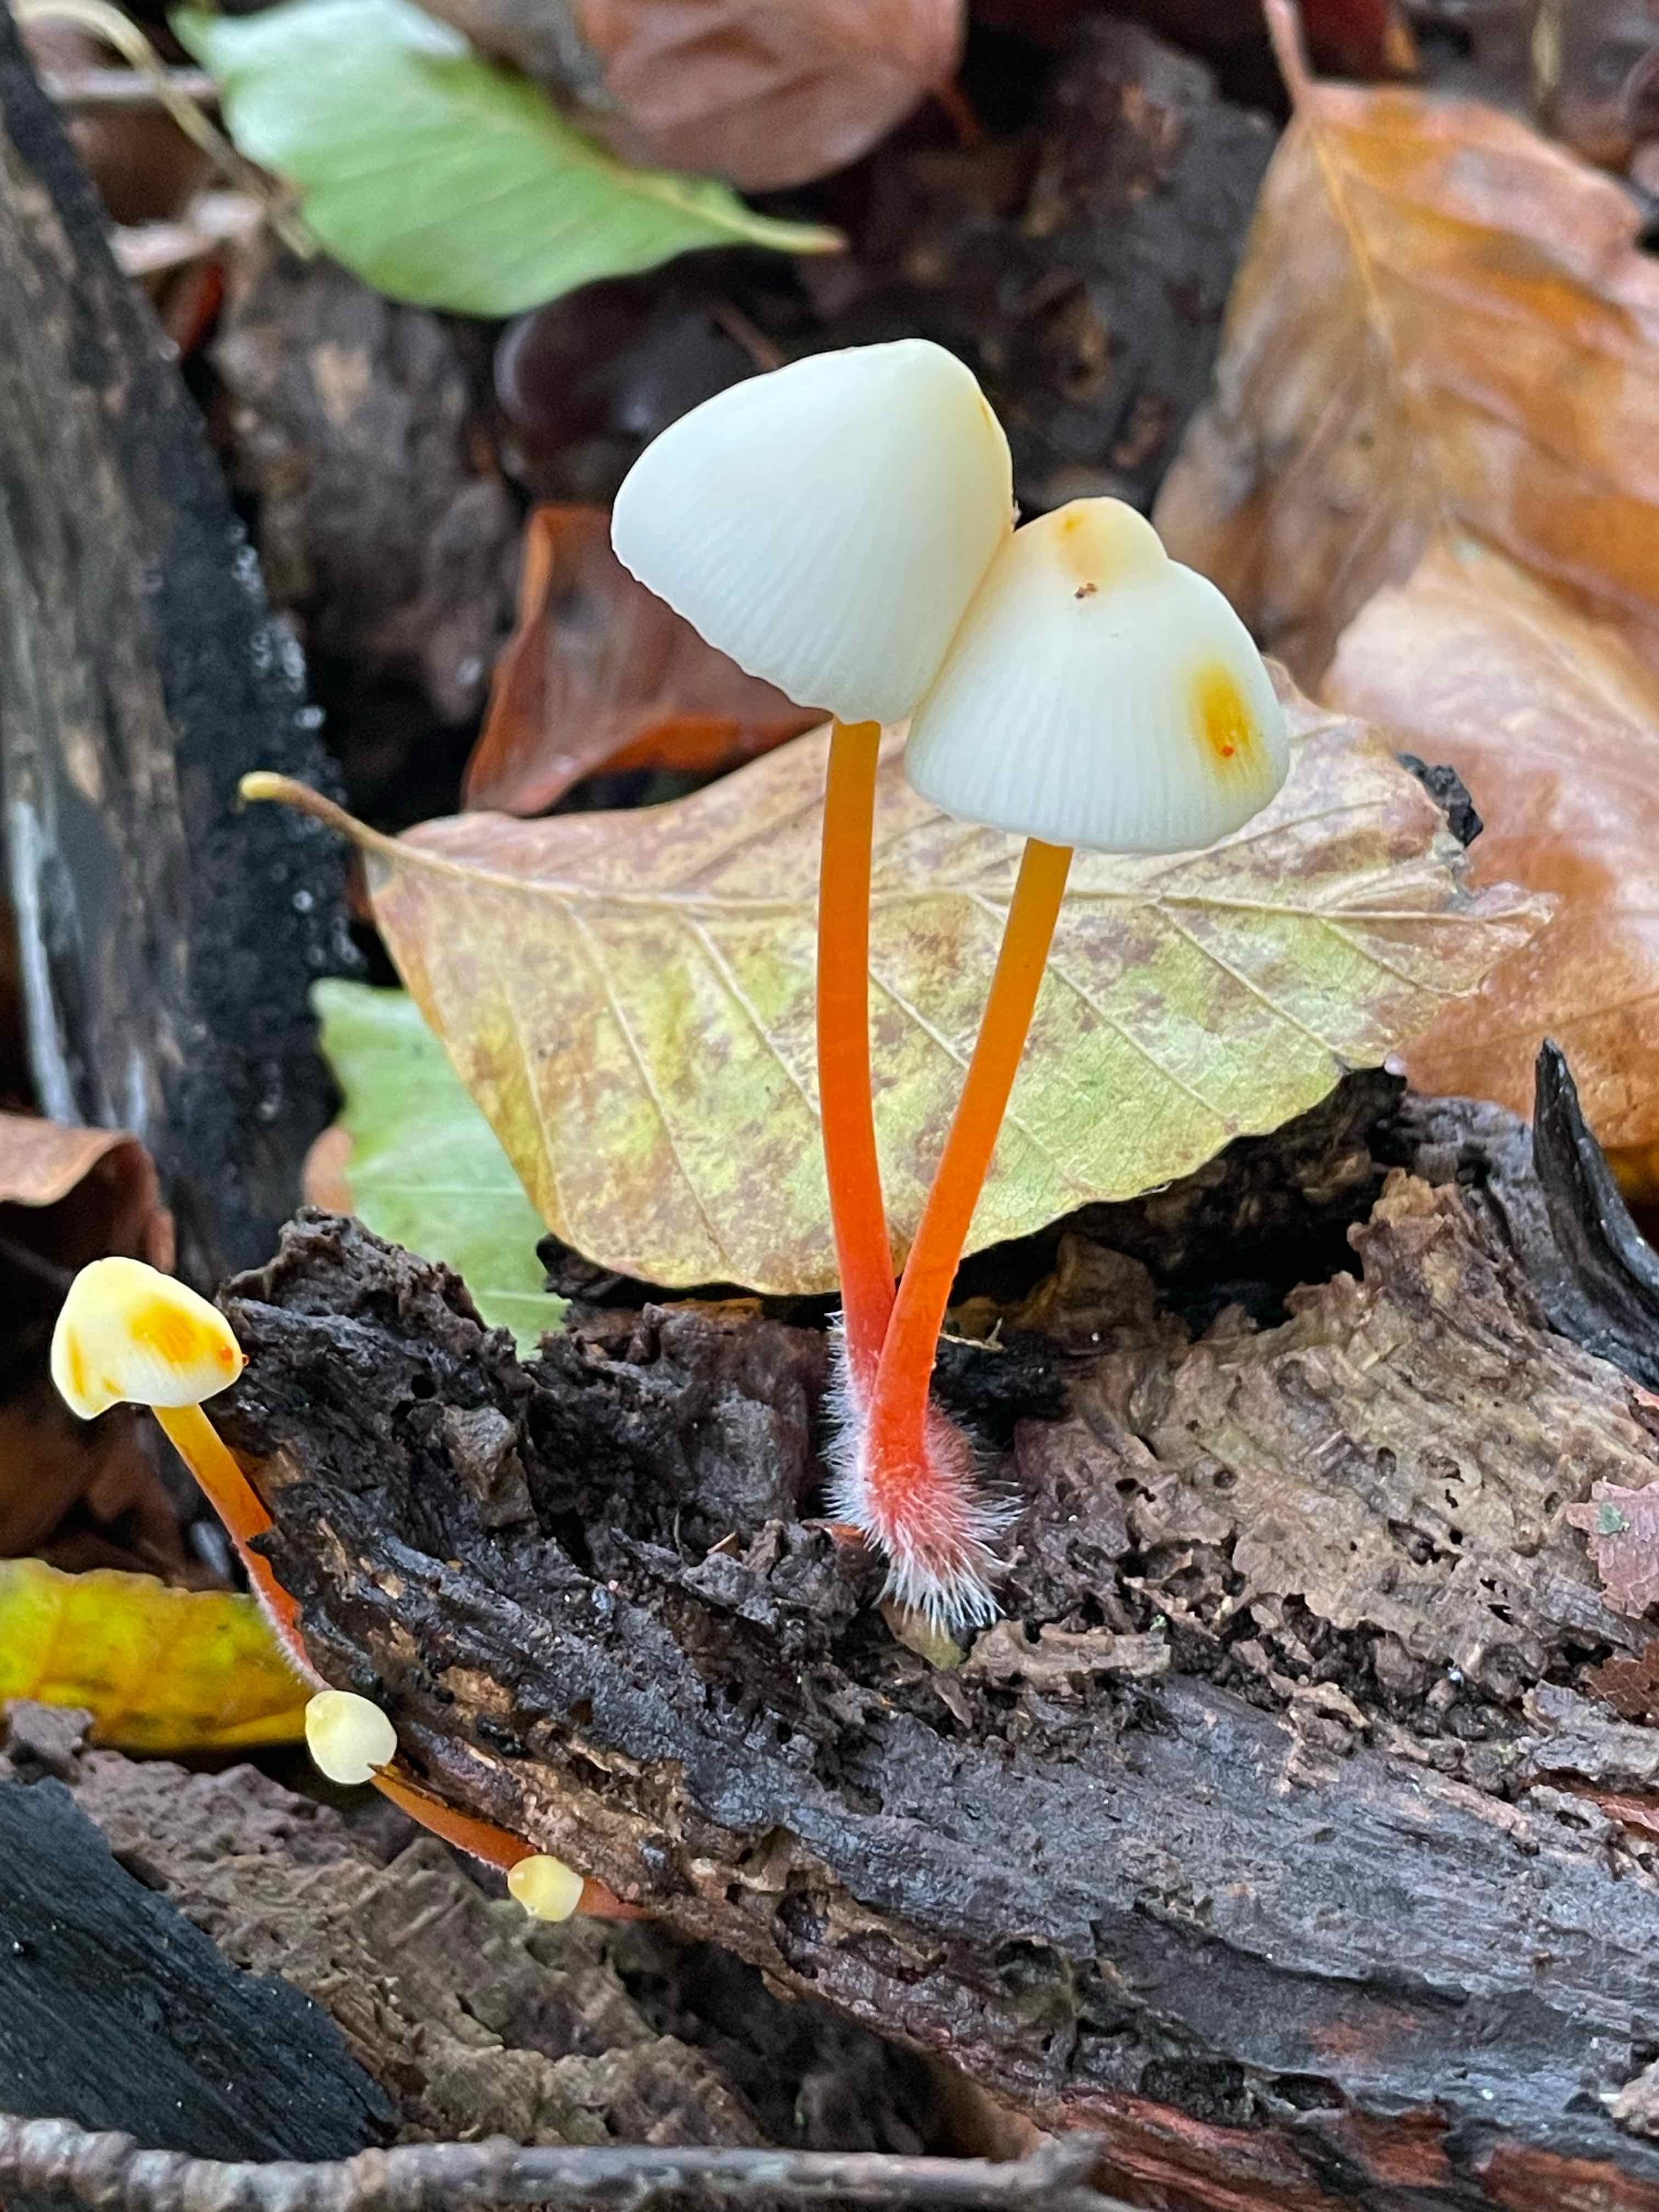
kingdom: Fungi
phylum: Basidiomycota
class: Agaricomycetes
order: Agaricales
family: Mycenaceae
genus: Mycena
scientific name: Mycena crocata
